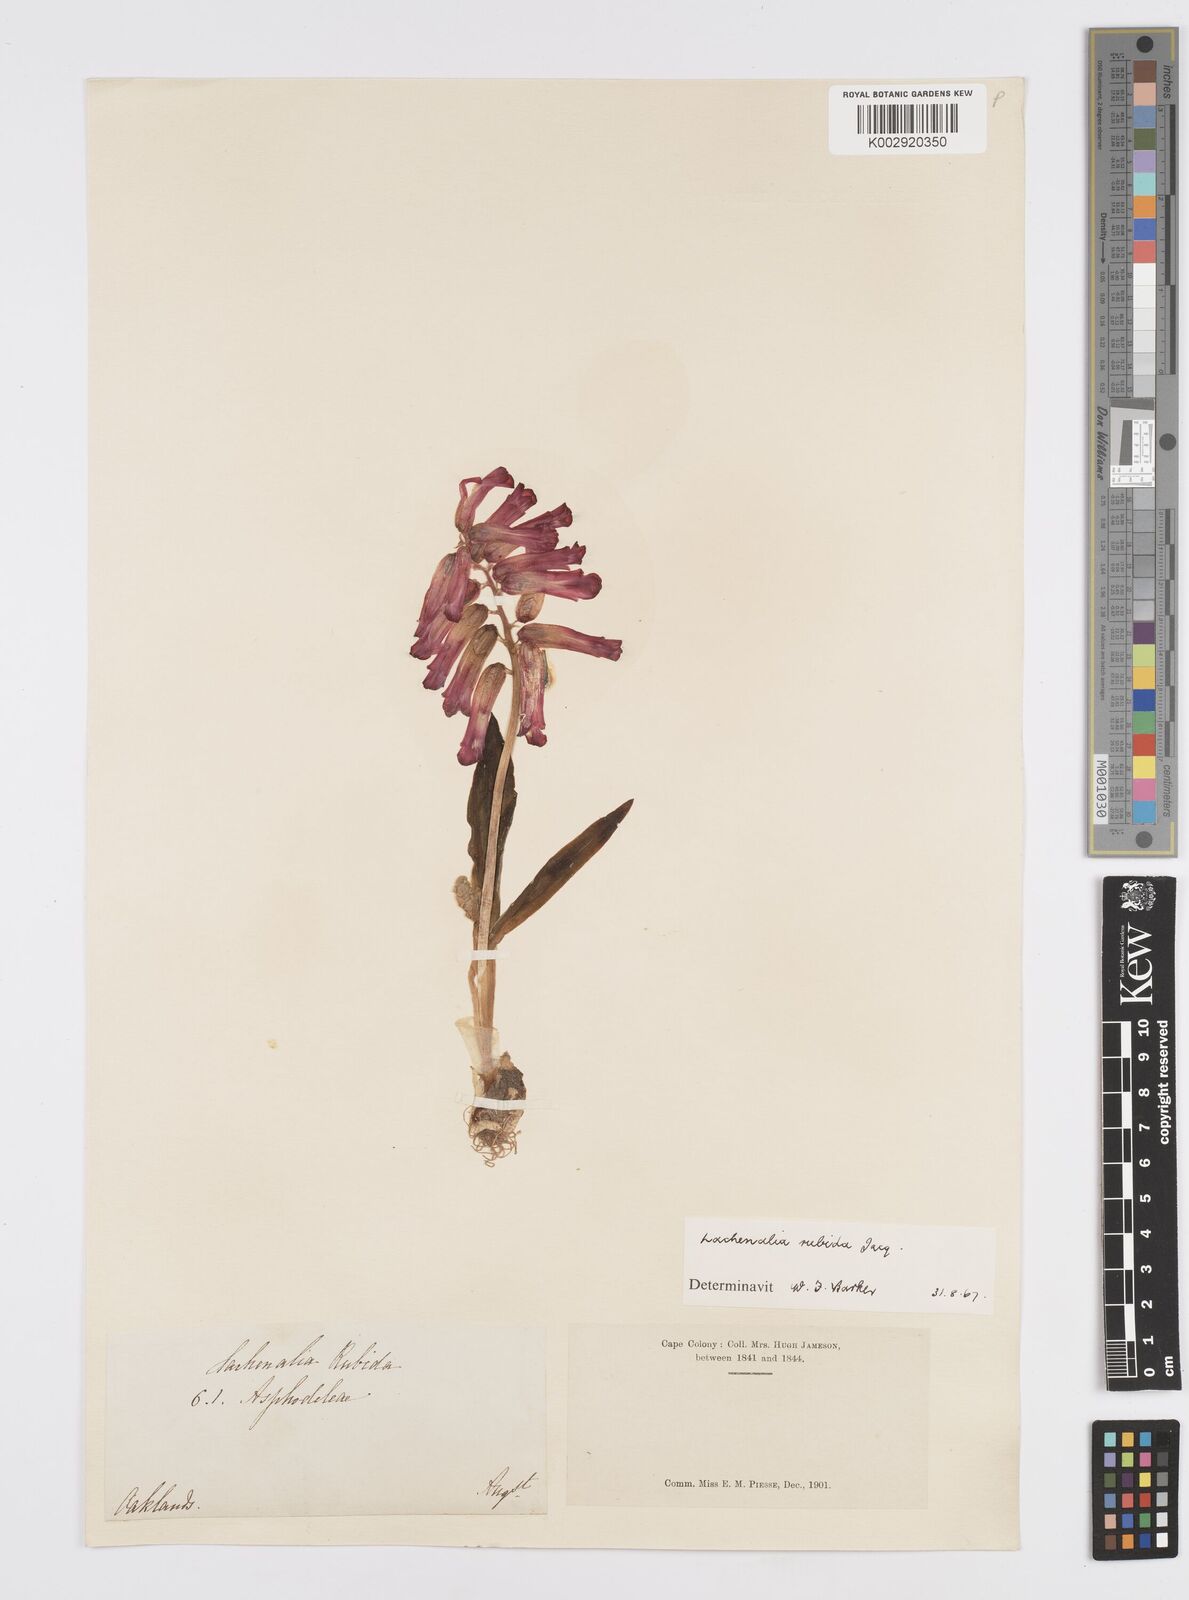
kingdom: Plantae
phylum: Tracheophyta
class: Liliopsida
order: Asparagales
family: Asparagaceae
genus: Lachenalia
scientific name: Lachenalia punctata
